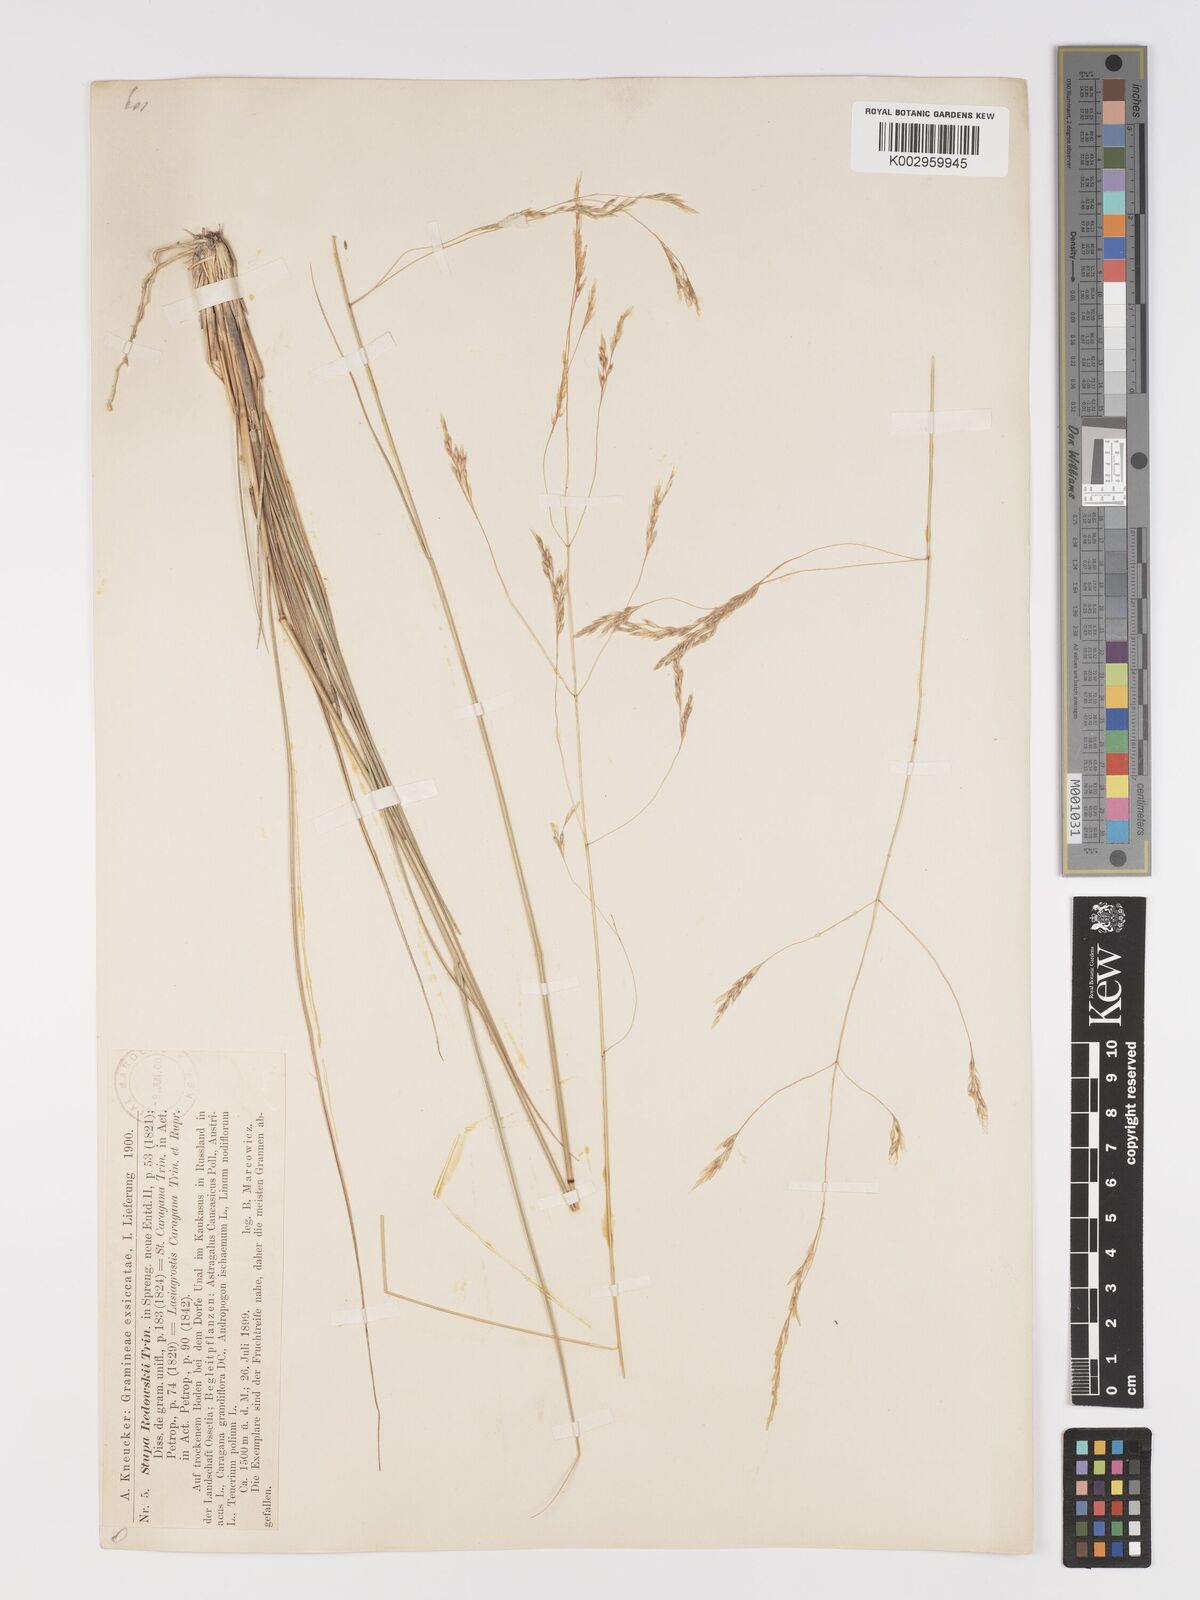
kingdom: Plantae
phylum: Tracheophyta
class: Liliopsida
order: Poales
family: Poaceae
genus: Stipa
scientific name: Stipa conferta
